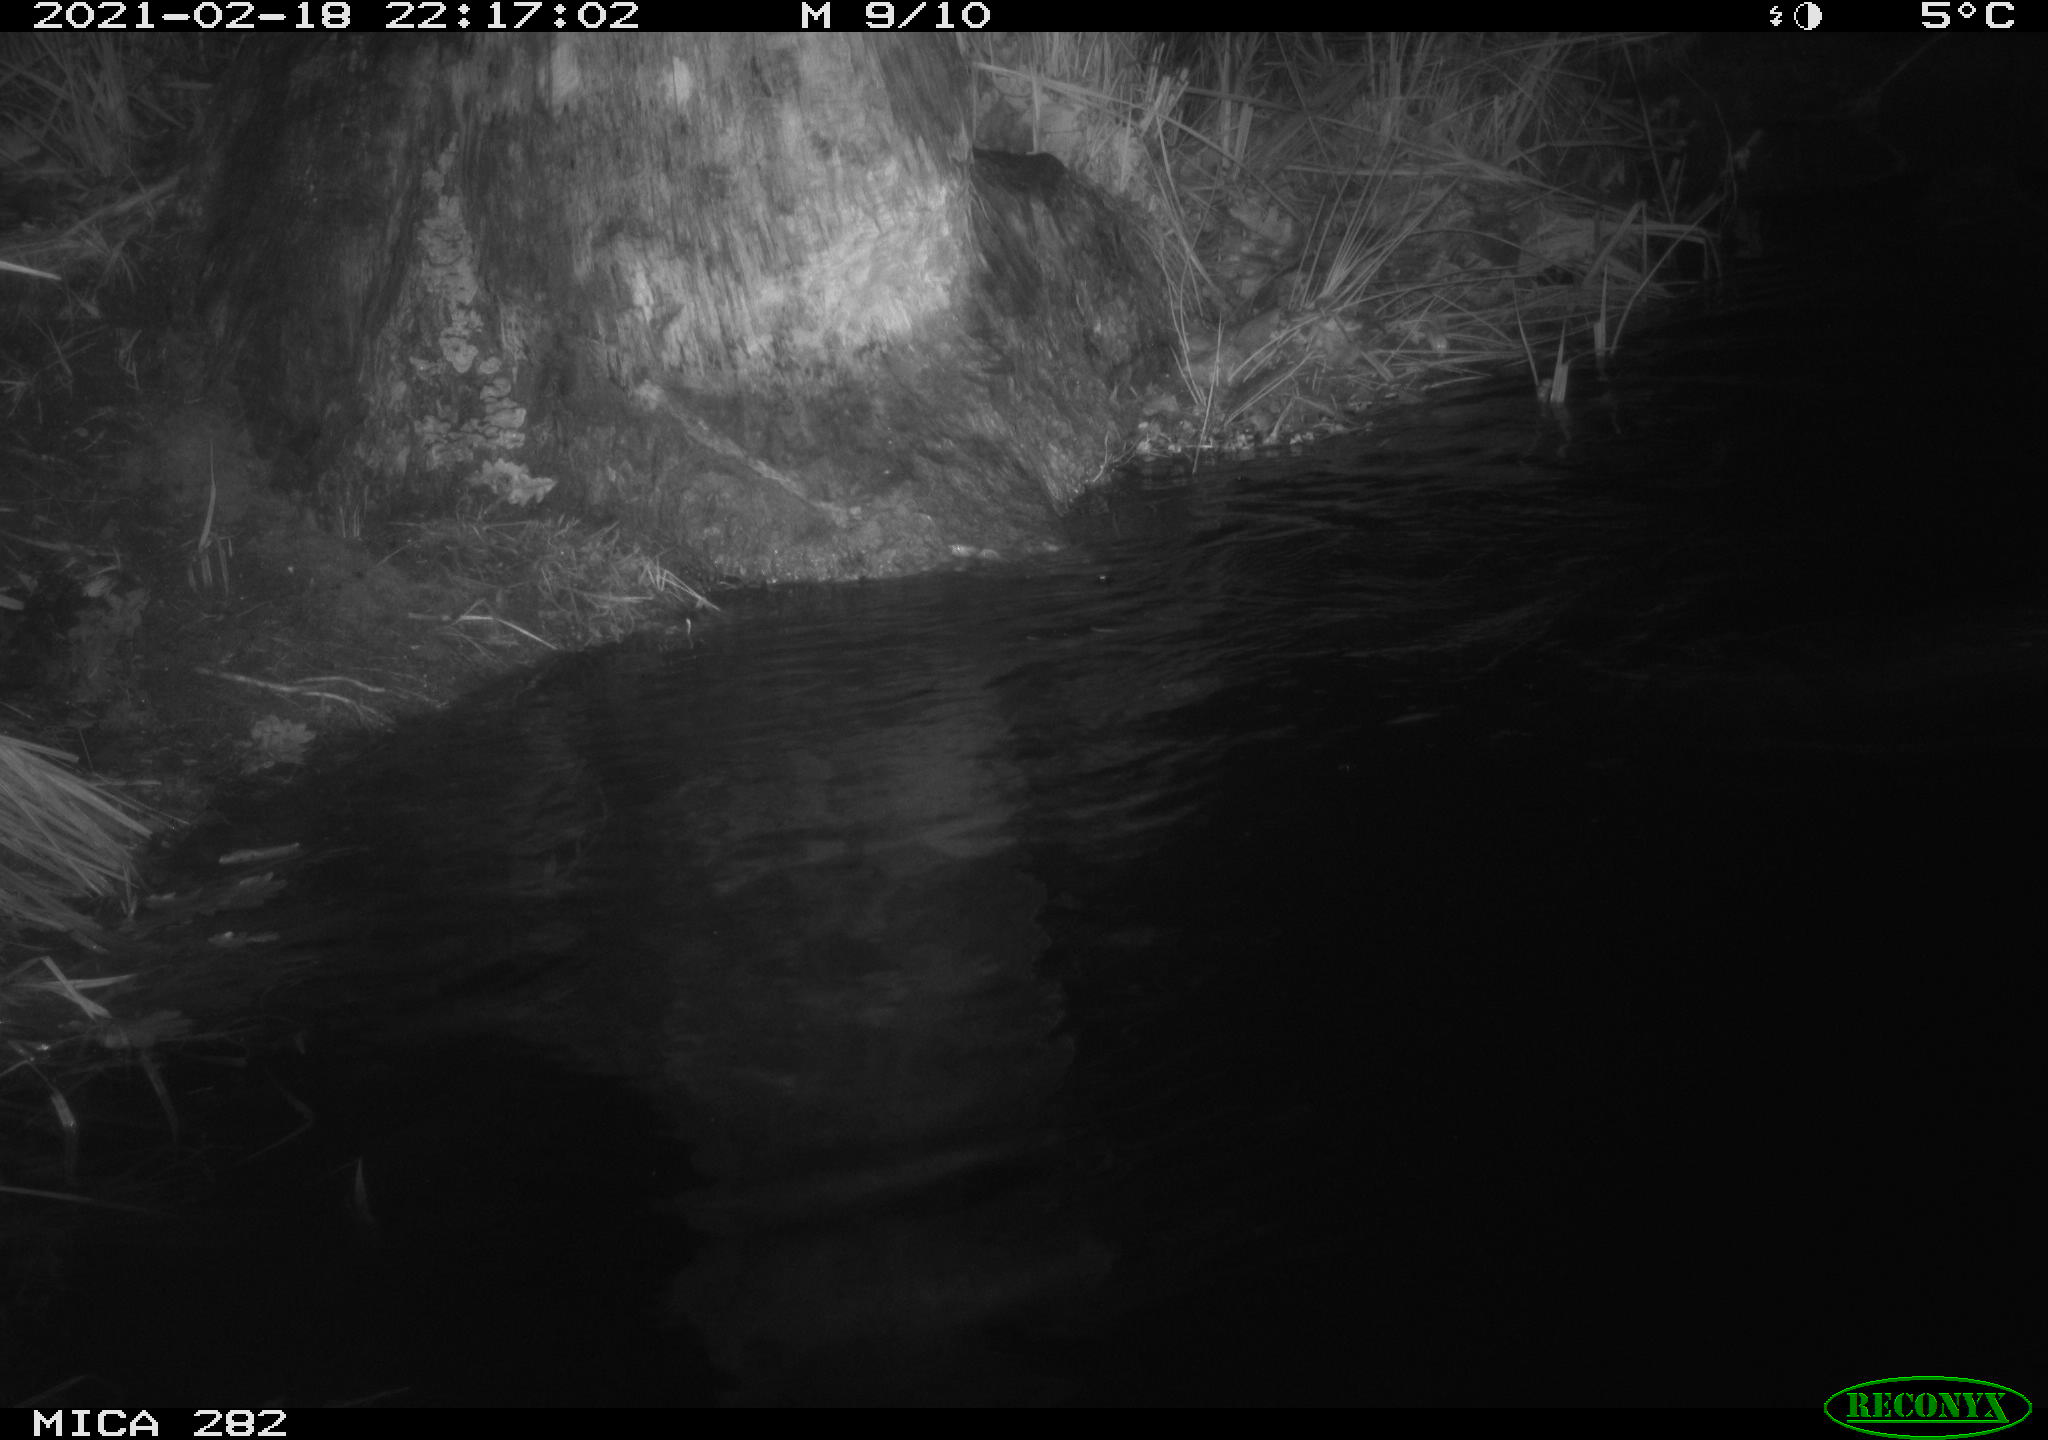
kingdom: Animalia
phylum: Chordata
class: Mammalia
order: Rodentia
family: Castoridae
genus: Castor
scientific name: Castor fiber
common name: Eurasian beaver
